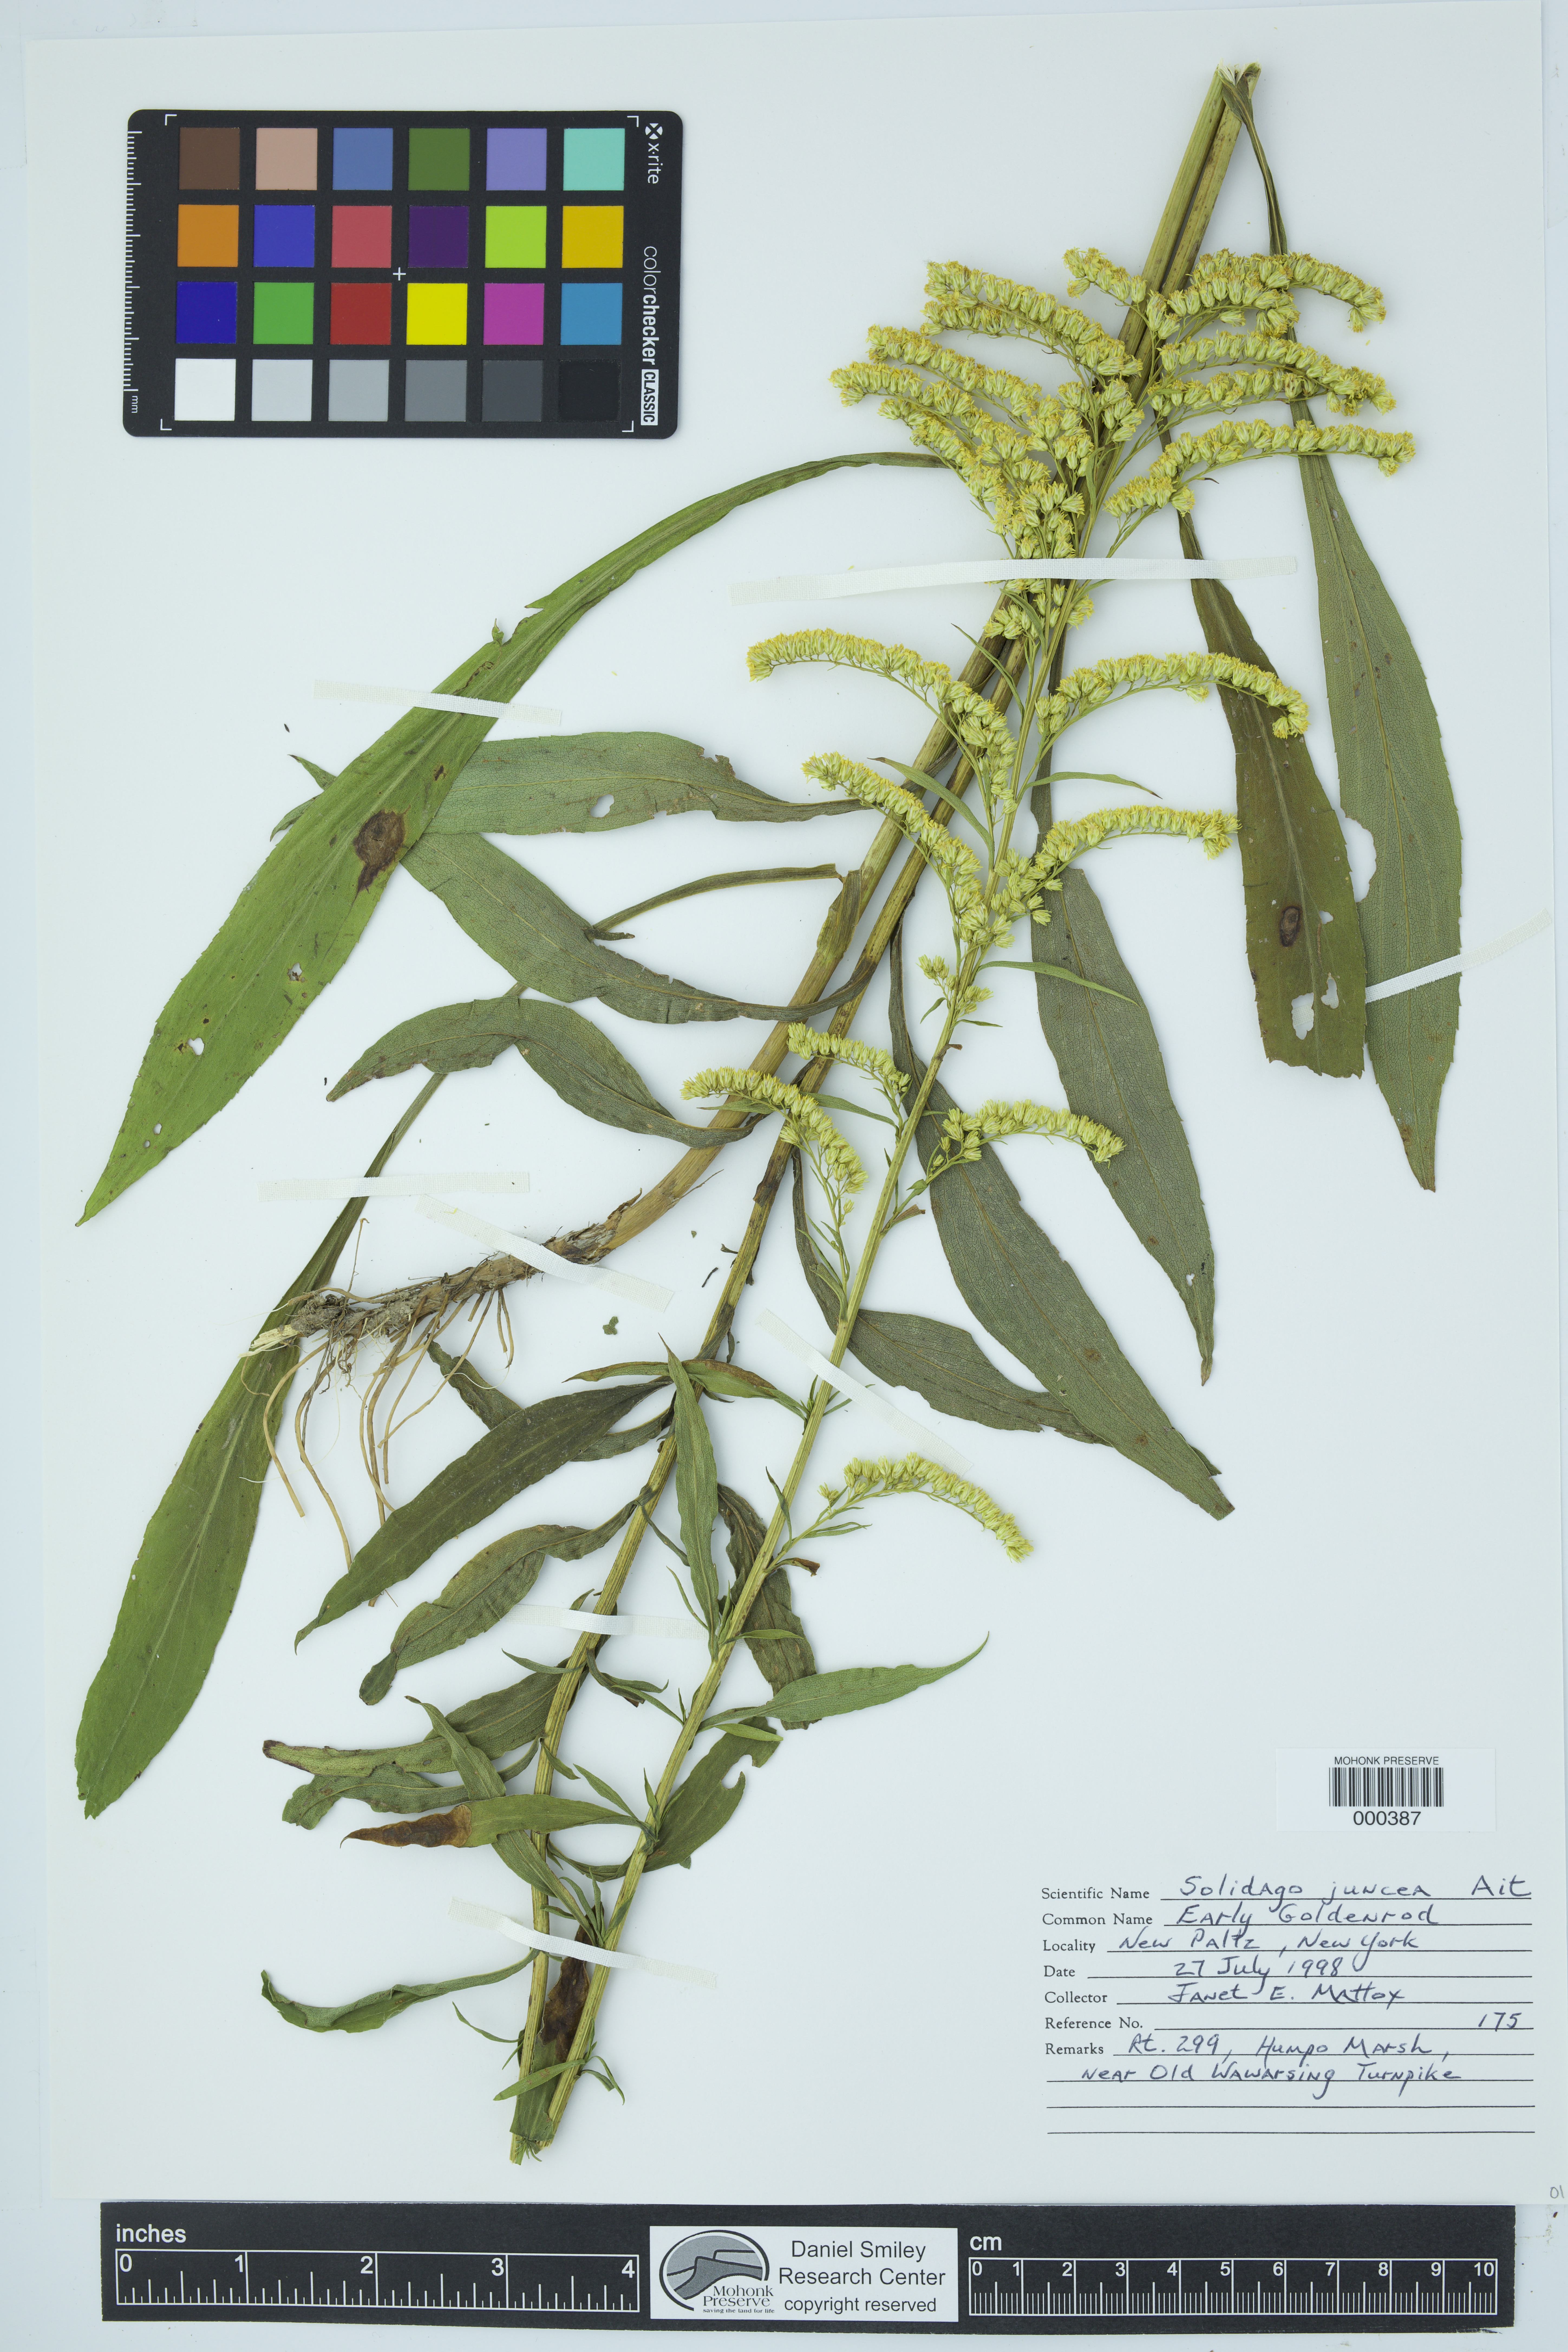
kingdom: Plantae
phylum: Tracheophyta
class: Magnoliopsida
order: Asterales
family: Asteraceae
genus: Solidago
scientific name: Solidago juncea
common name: Early goldenrod
